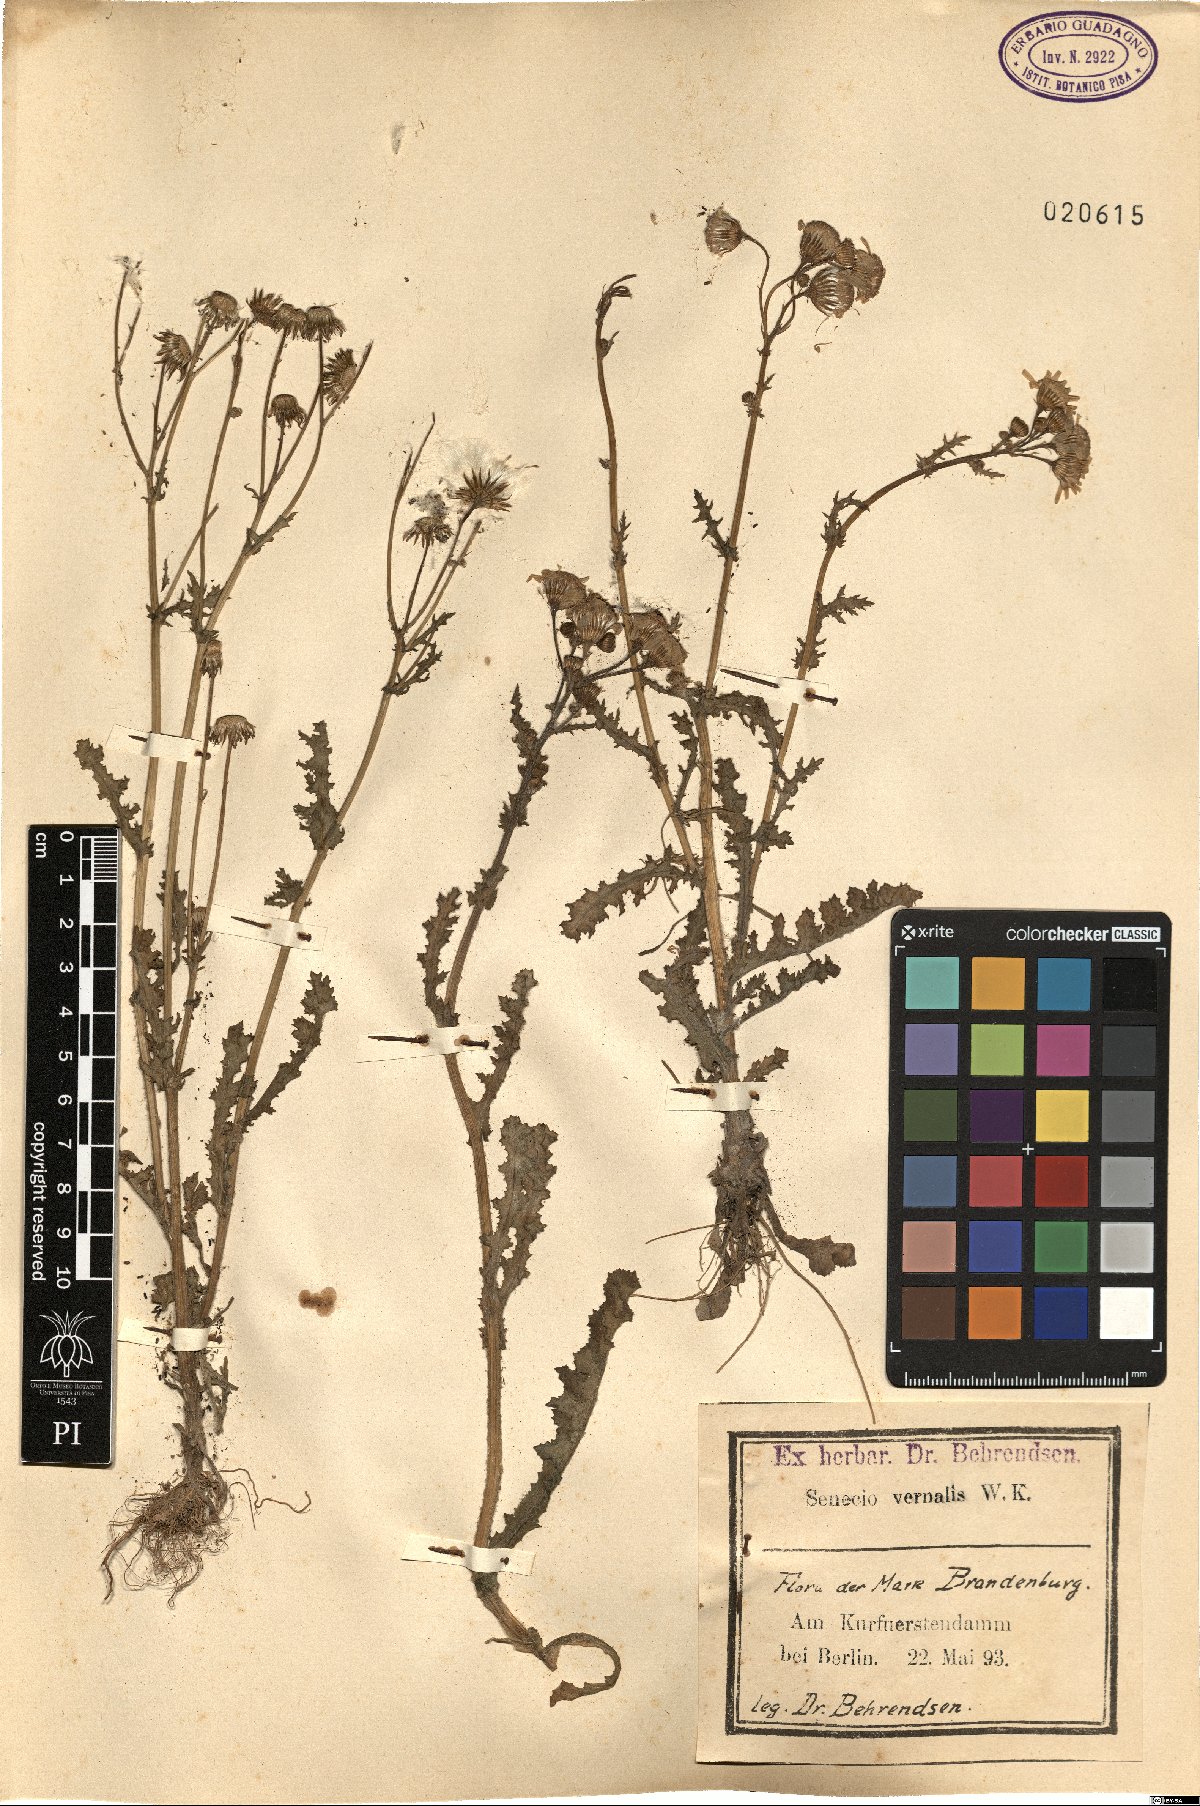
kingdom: Plantae
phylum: Tracheophyta
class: Magnoliopsida
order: Asterales
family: Asteraceae
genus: Senecio
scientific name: Senecio vernalis
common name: Eastern groundsel
